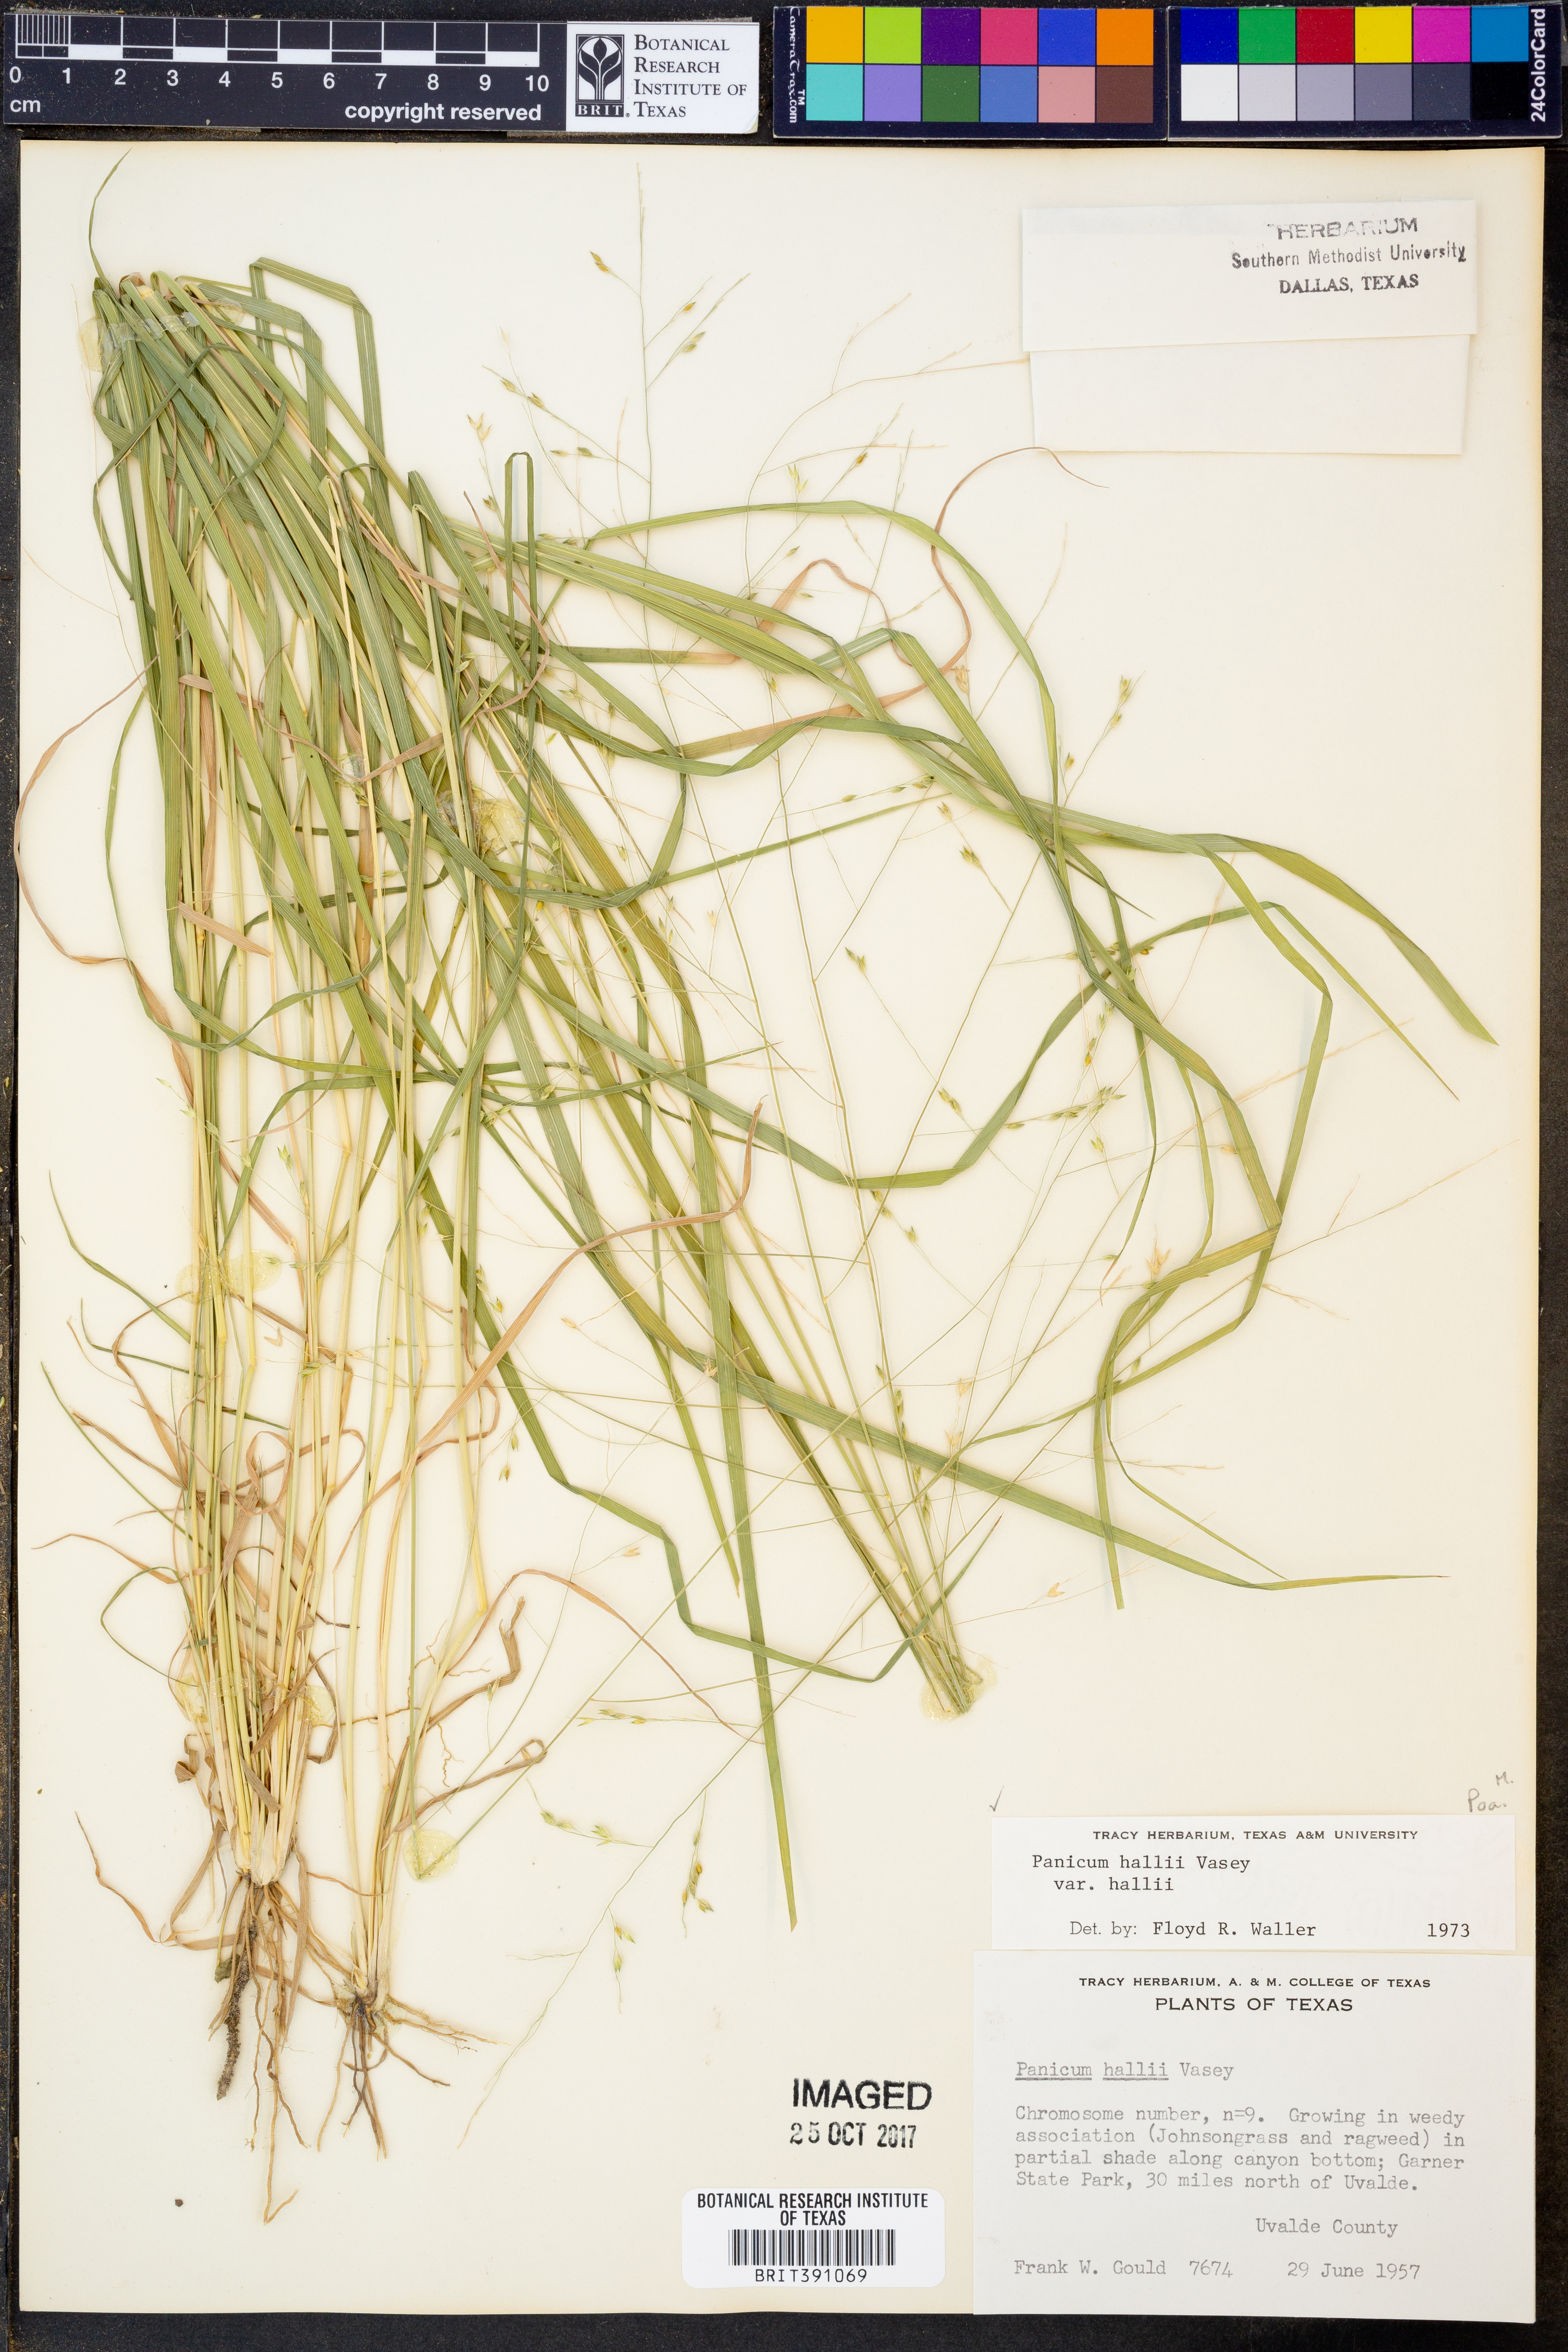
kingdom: Plantae
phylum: Tracheophyta
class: Liliopsida
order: Poales
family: Poaceae
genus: Panicum
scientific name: Panicum hallii
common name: Hall's witchgrass
